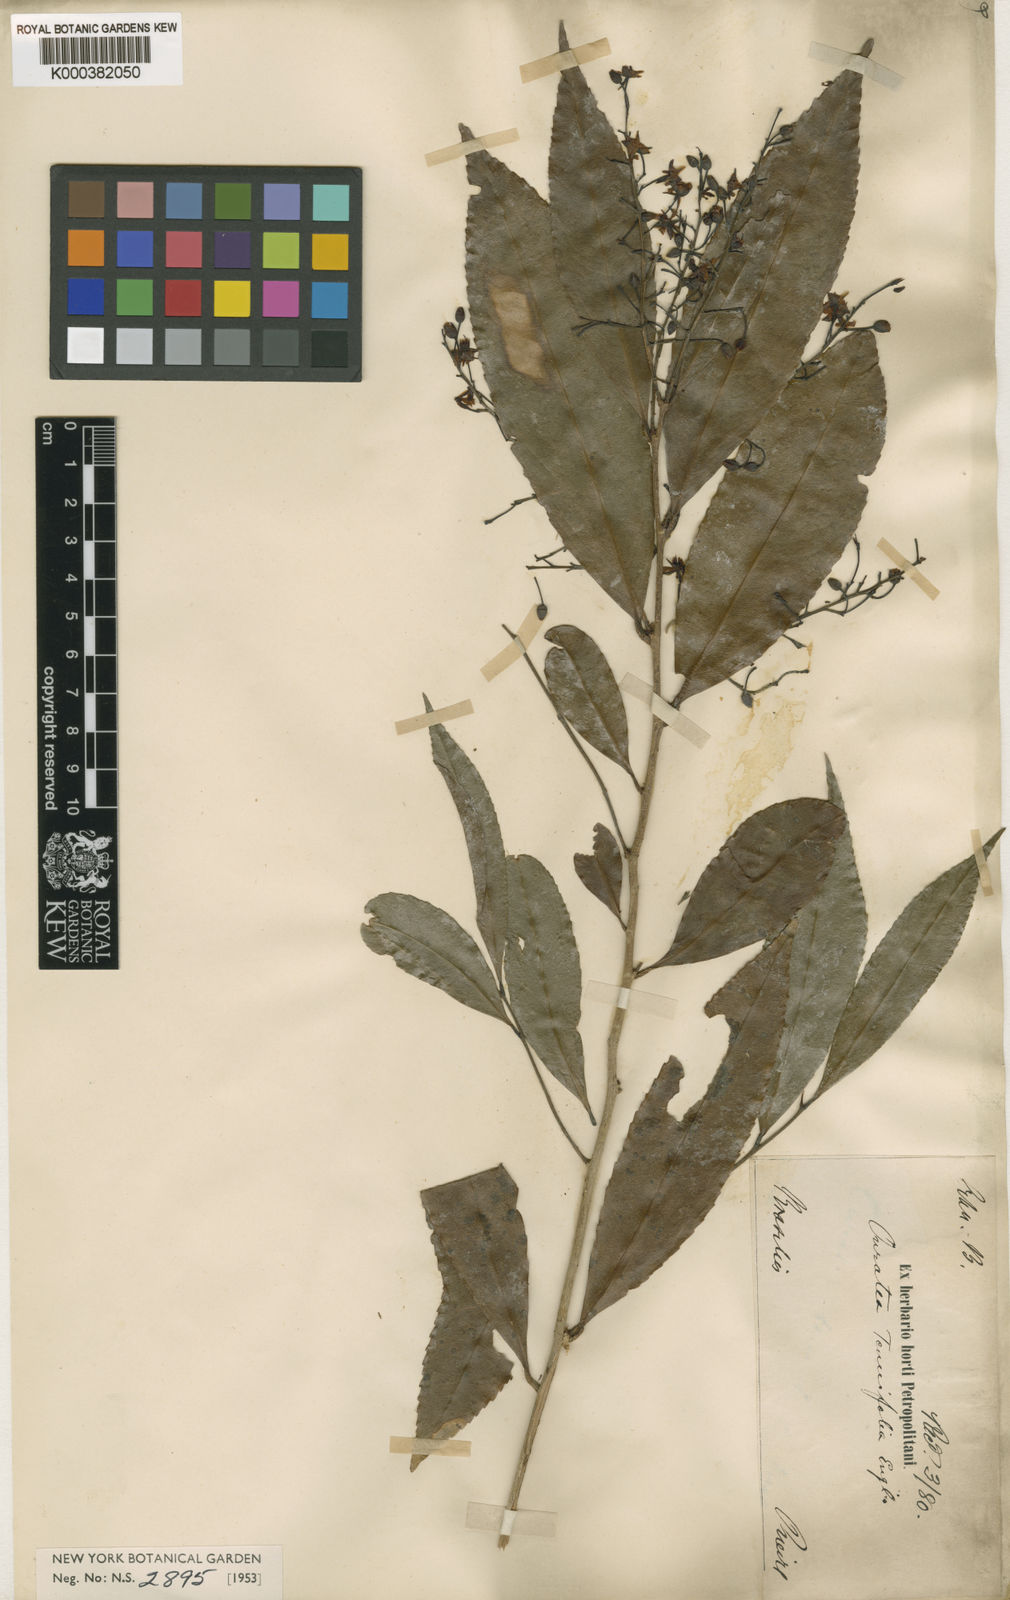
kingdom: Plantae
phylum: Tracheophyta
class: Magnoliopsida
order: Malpighiales
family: Ochnaceae
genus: Ouratea
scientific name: Ouratea tenuifolia
